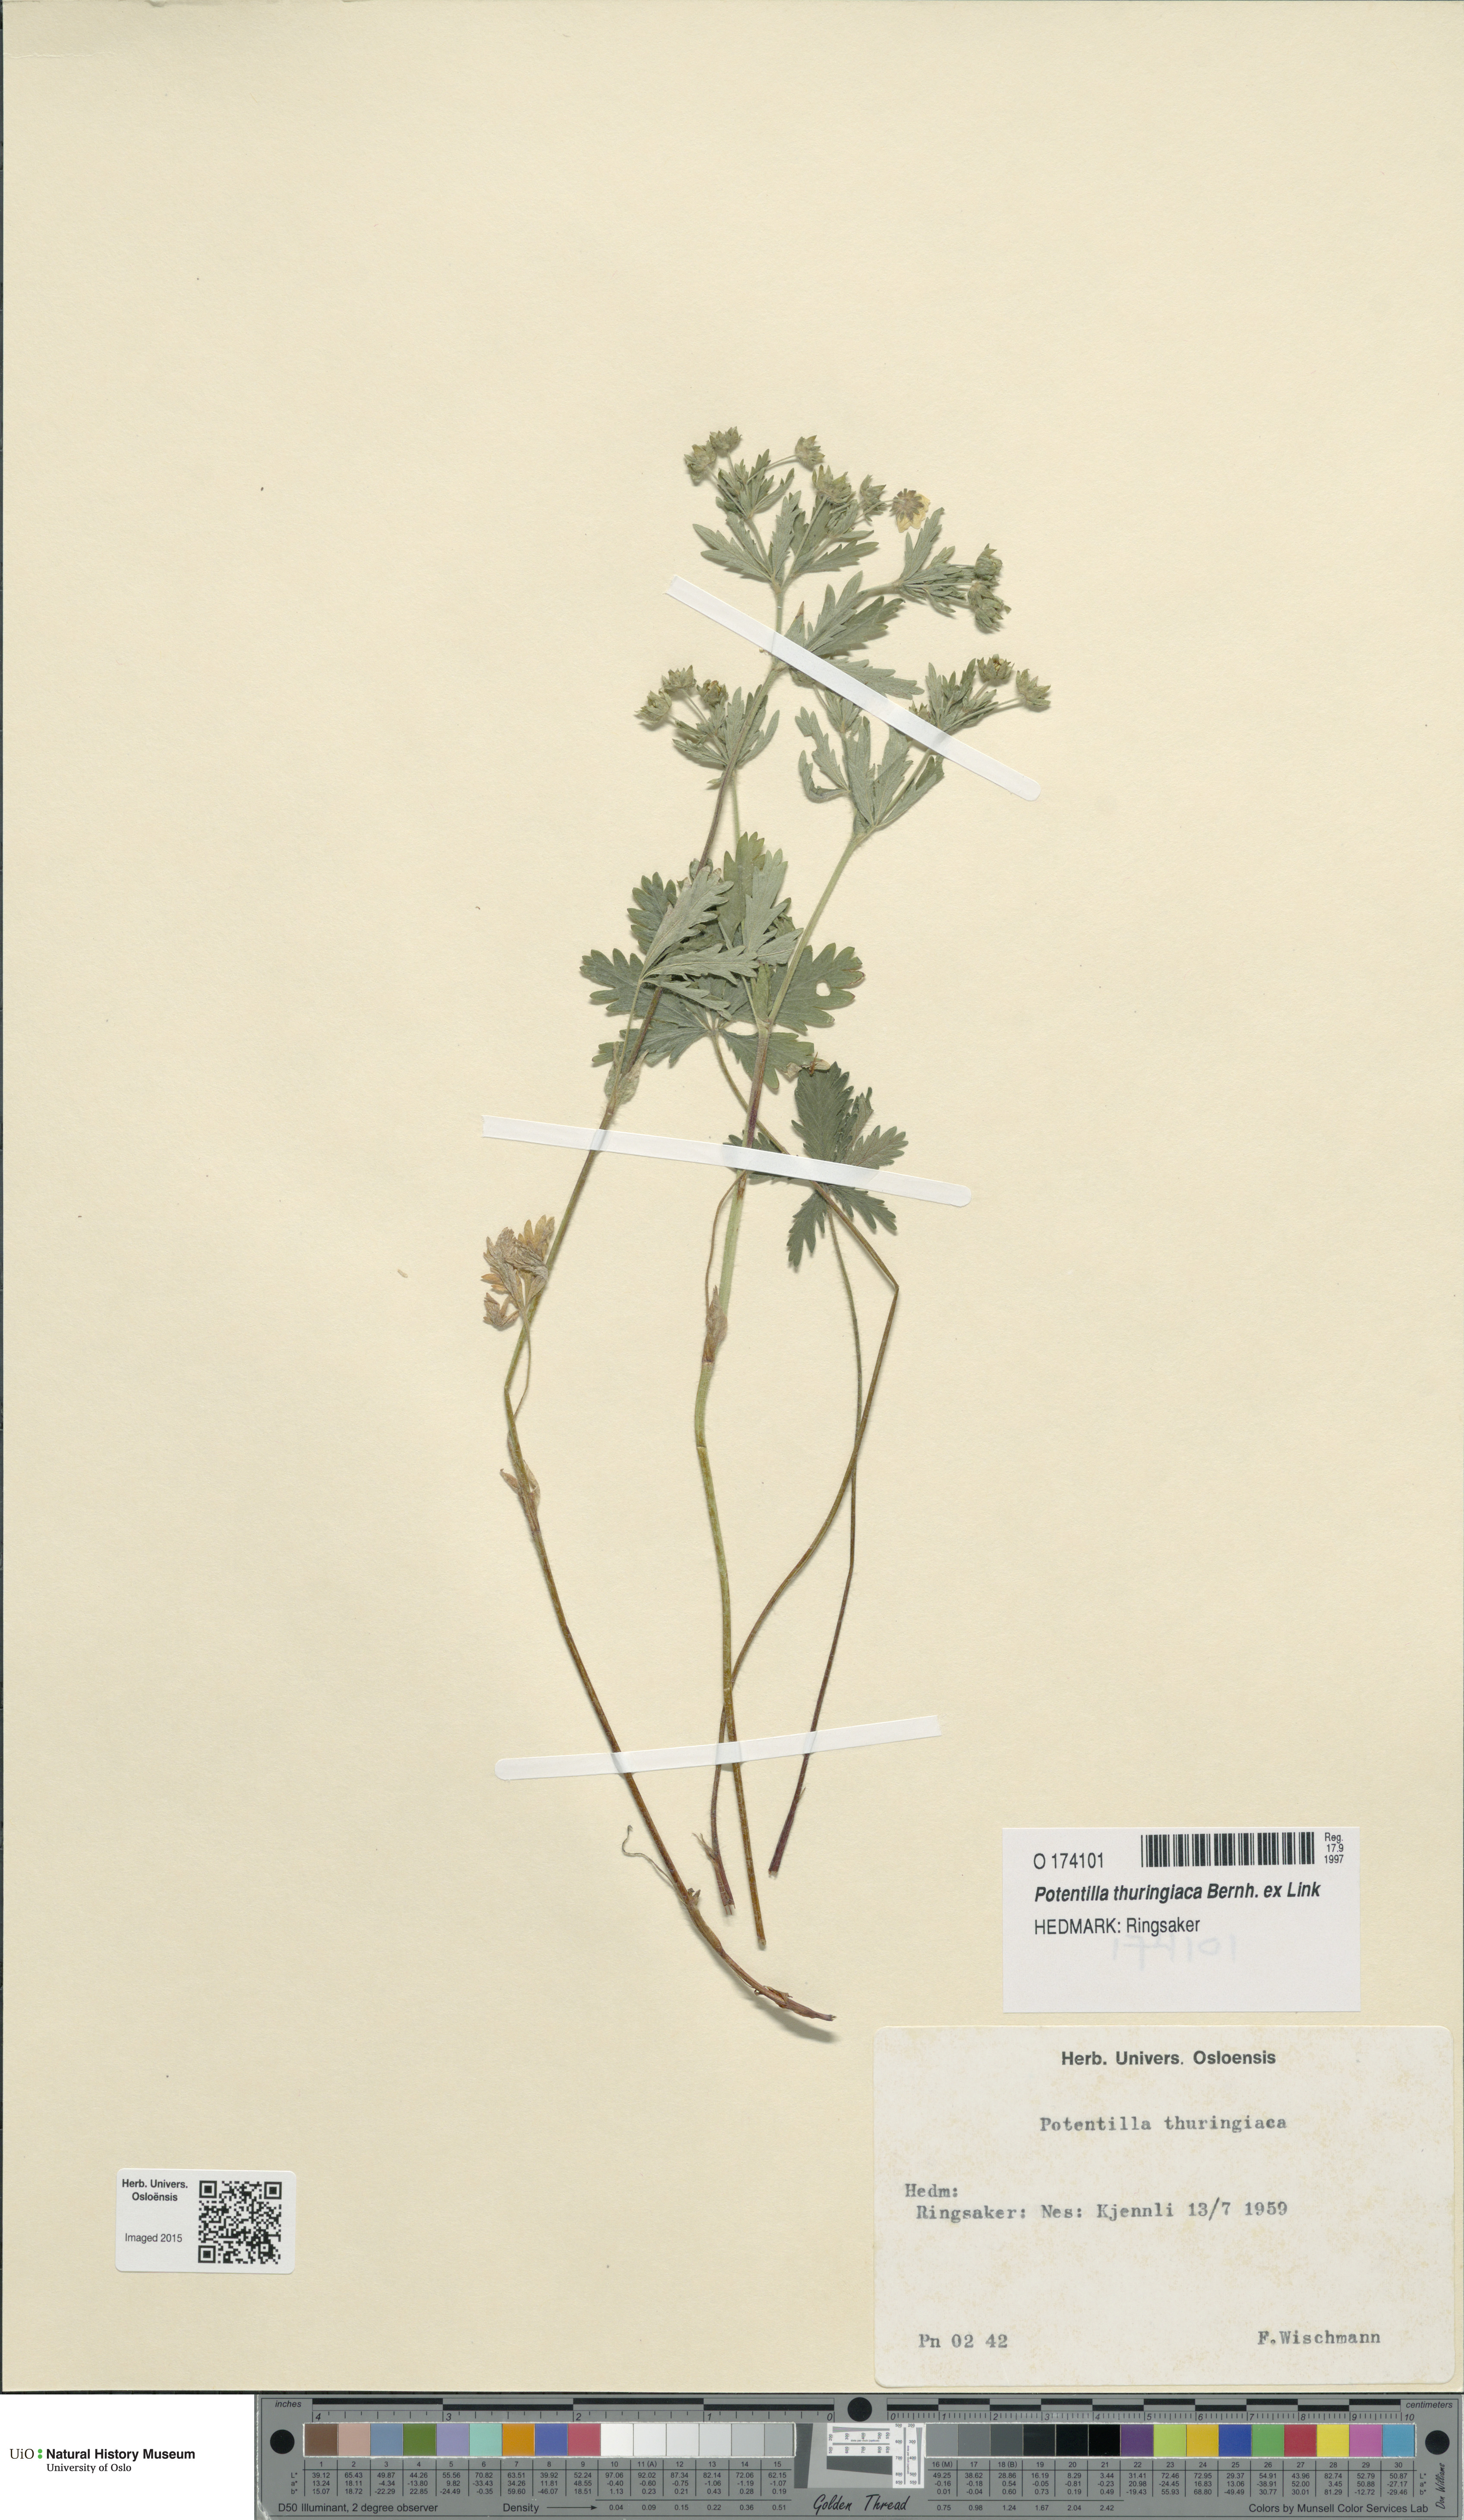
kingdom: Plantae
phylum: Tracheophyta
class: Magnoliopsida
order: Rosales
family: Rosaceae
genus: Potentilla
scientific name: Potentilla thuringiaca
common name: European cinquefoil
